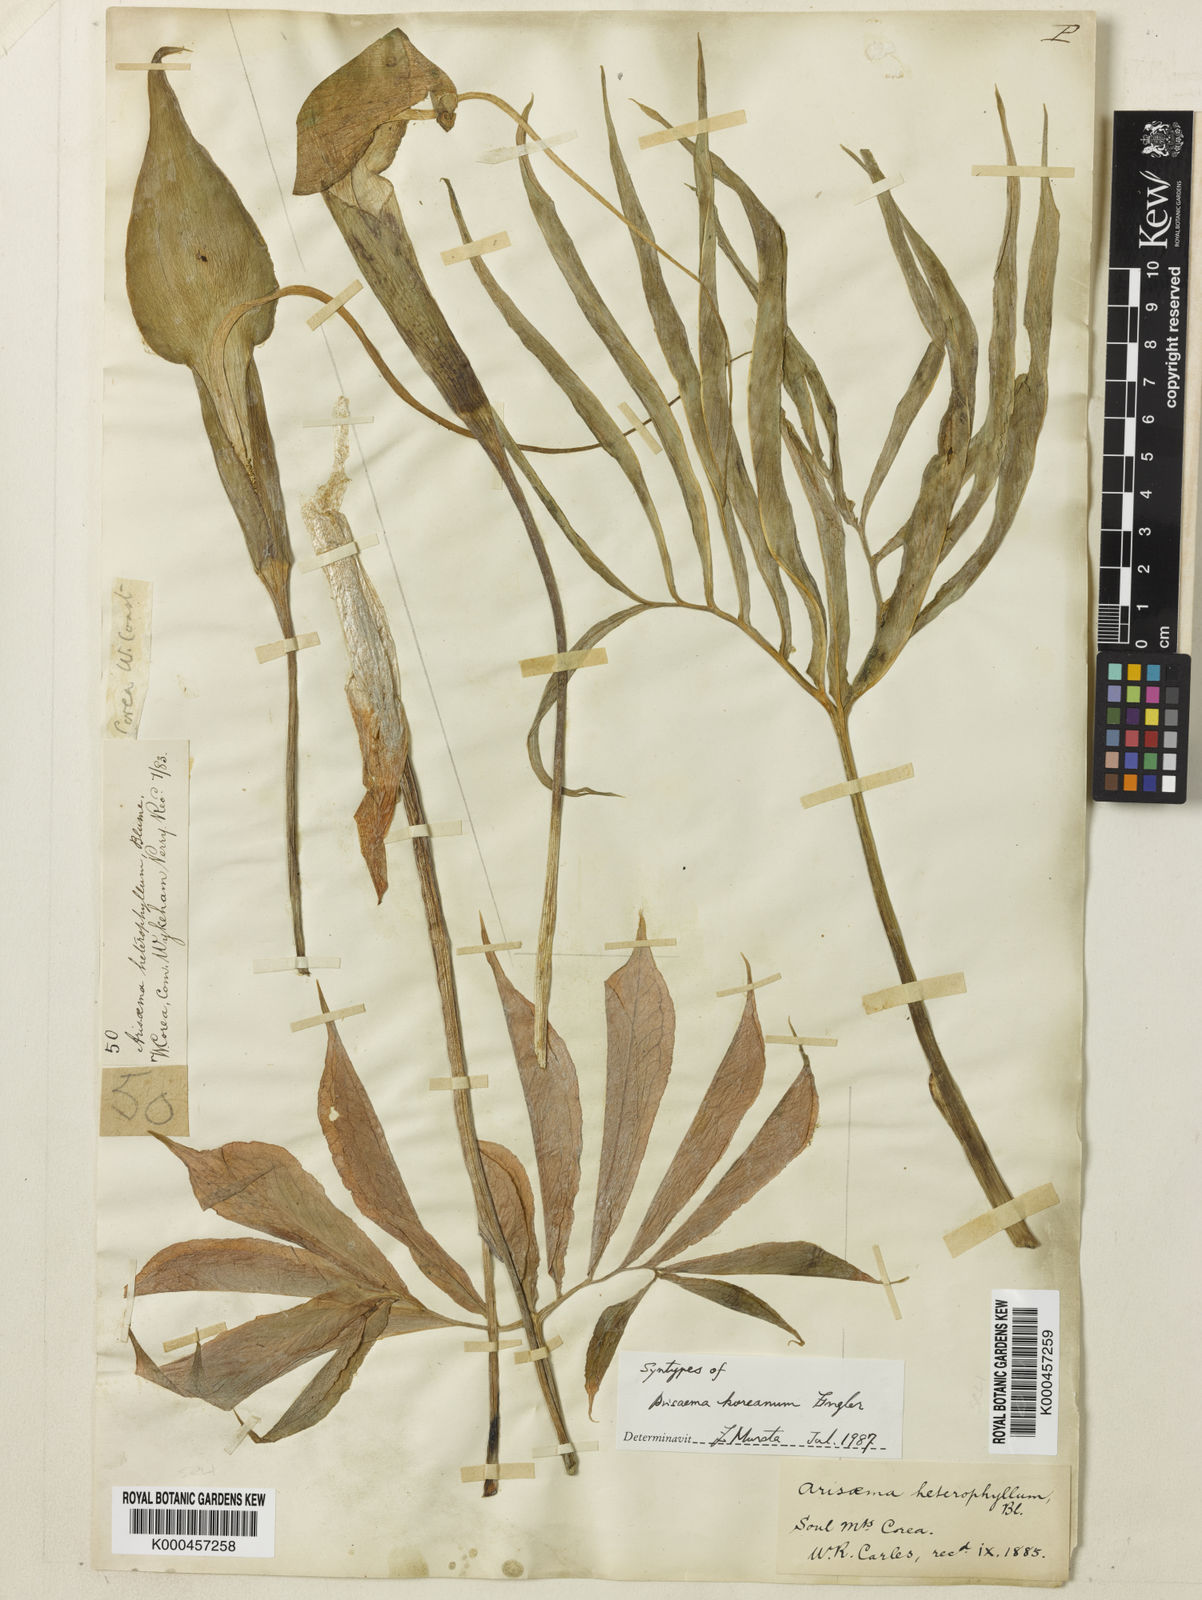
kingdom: Plantae
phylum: Tracheophyta
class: Liliopsida
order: Alismatales
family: Araceae
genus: Arisaema
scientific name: Arisaema heterophyllum
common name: Dancing crane cobra lily
